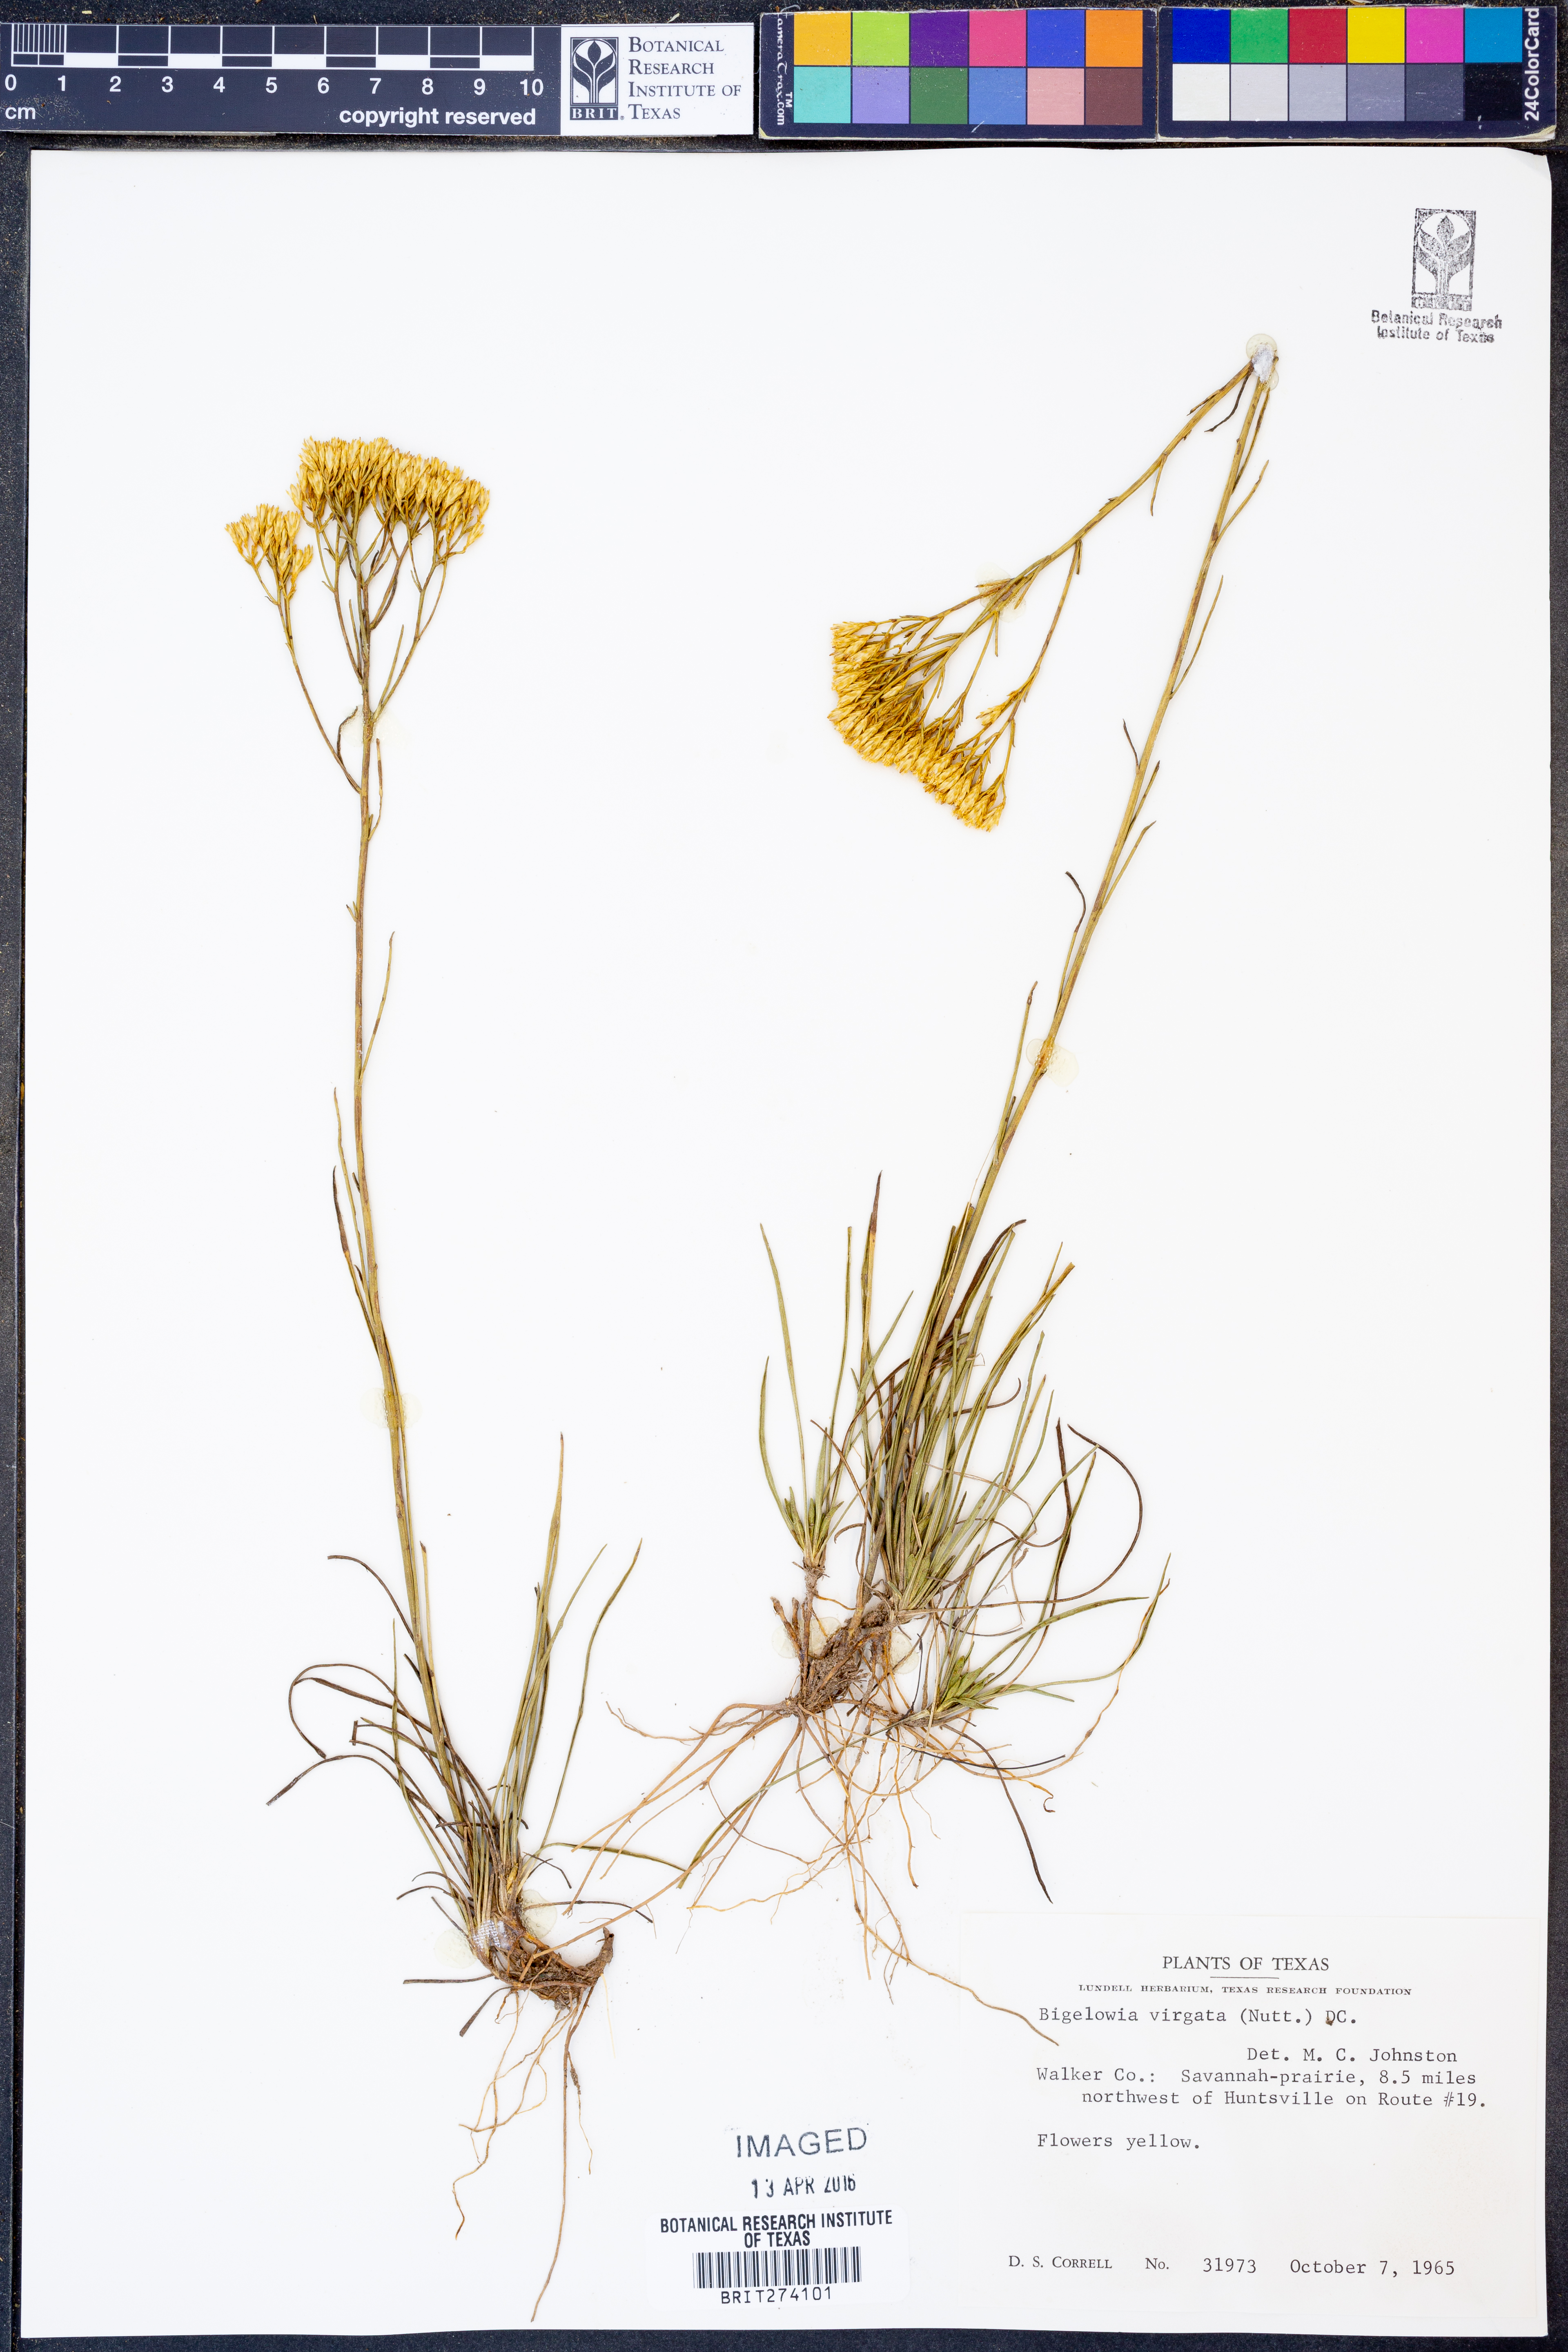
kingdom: Plantae
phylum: Tracheophyta
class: Magnoliopsida
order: Asterales
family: Asteraceae
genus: Bigelowia
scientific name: Bigelowia nudata
